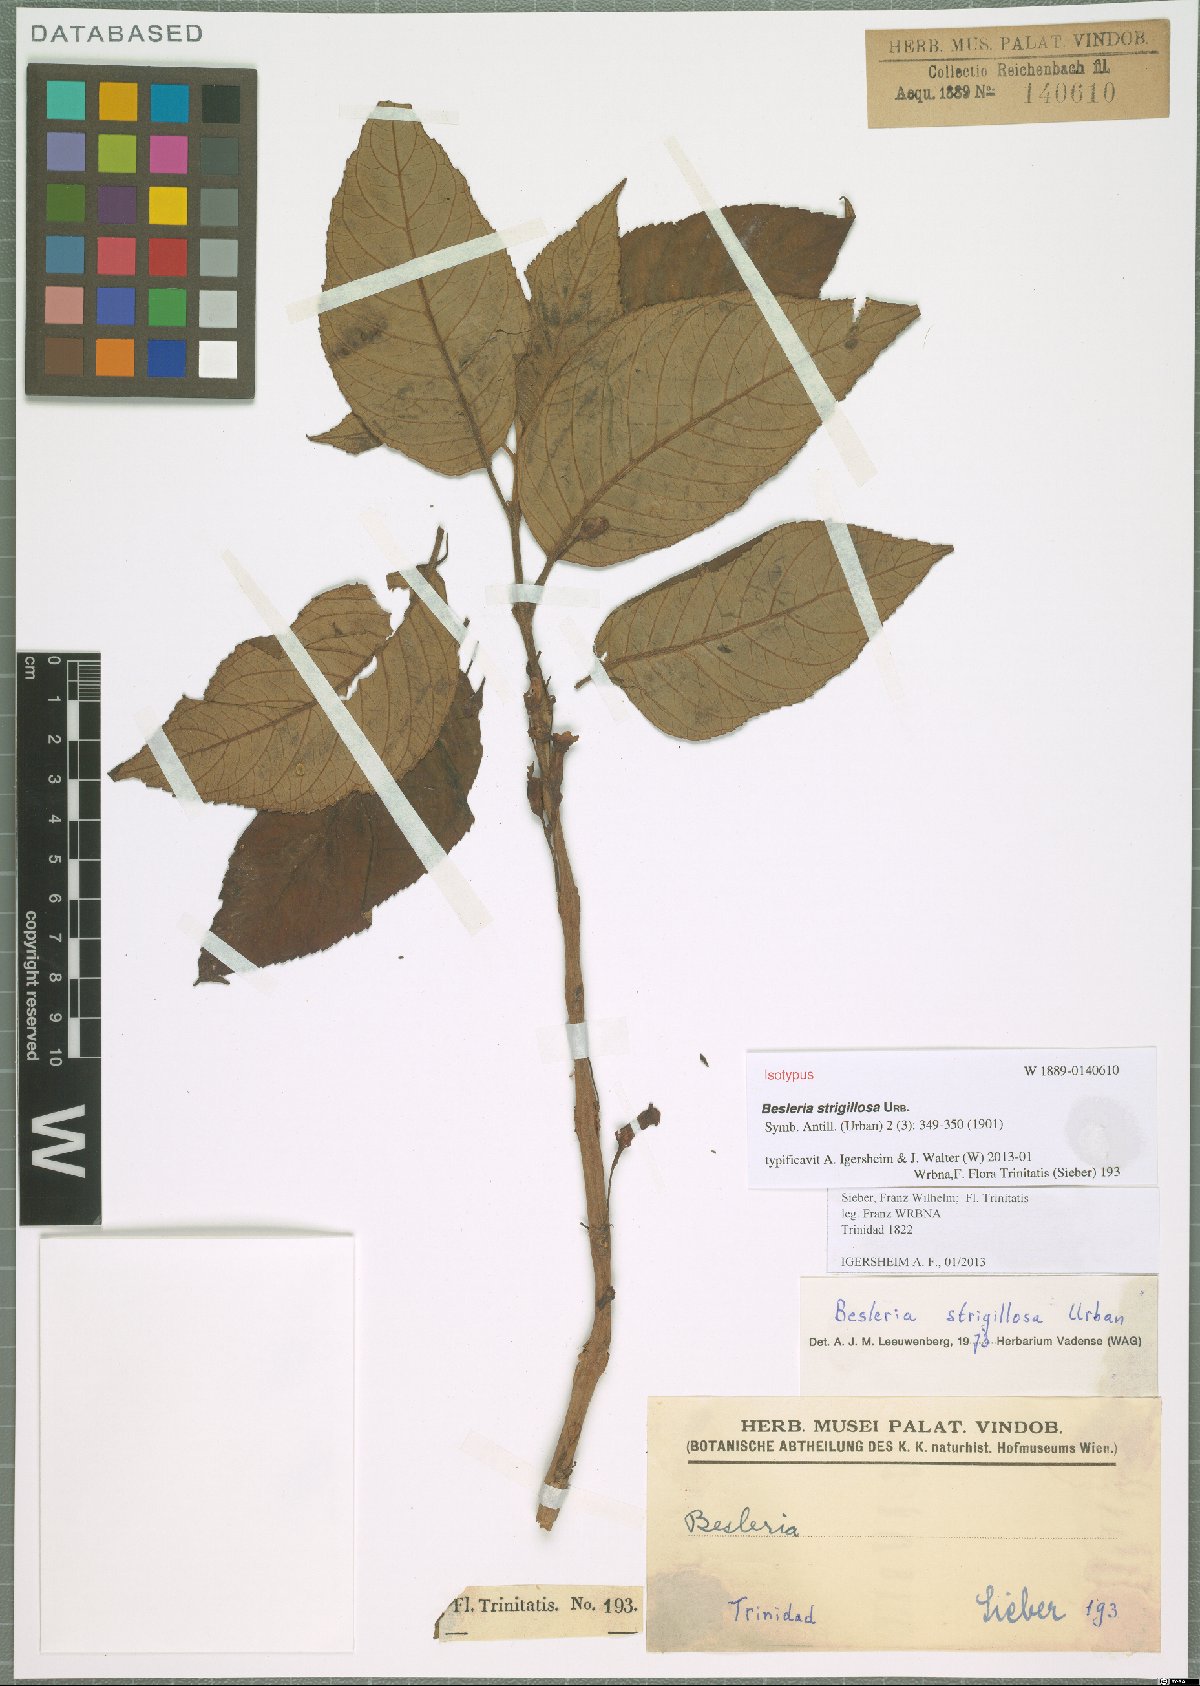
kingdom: Plantae
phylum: Tracheophyta
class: Magnoliopsida
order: Lamiales
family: Gesneriaceae
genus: Besleria
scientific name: Besleria strigillosa
